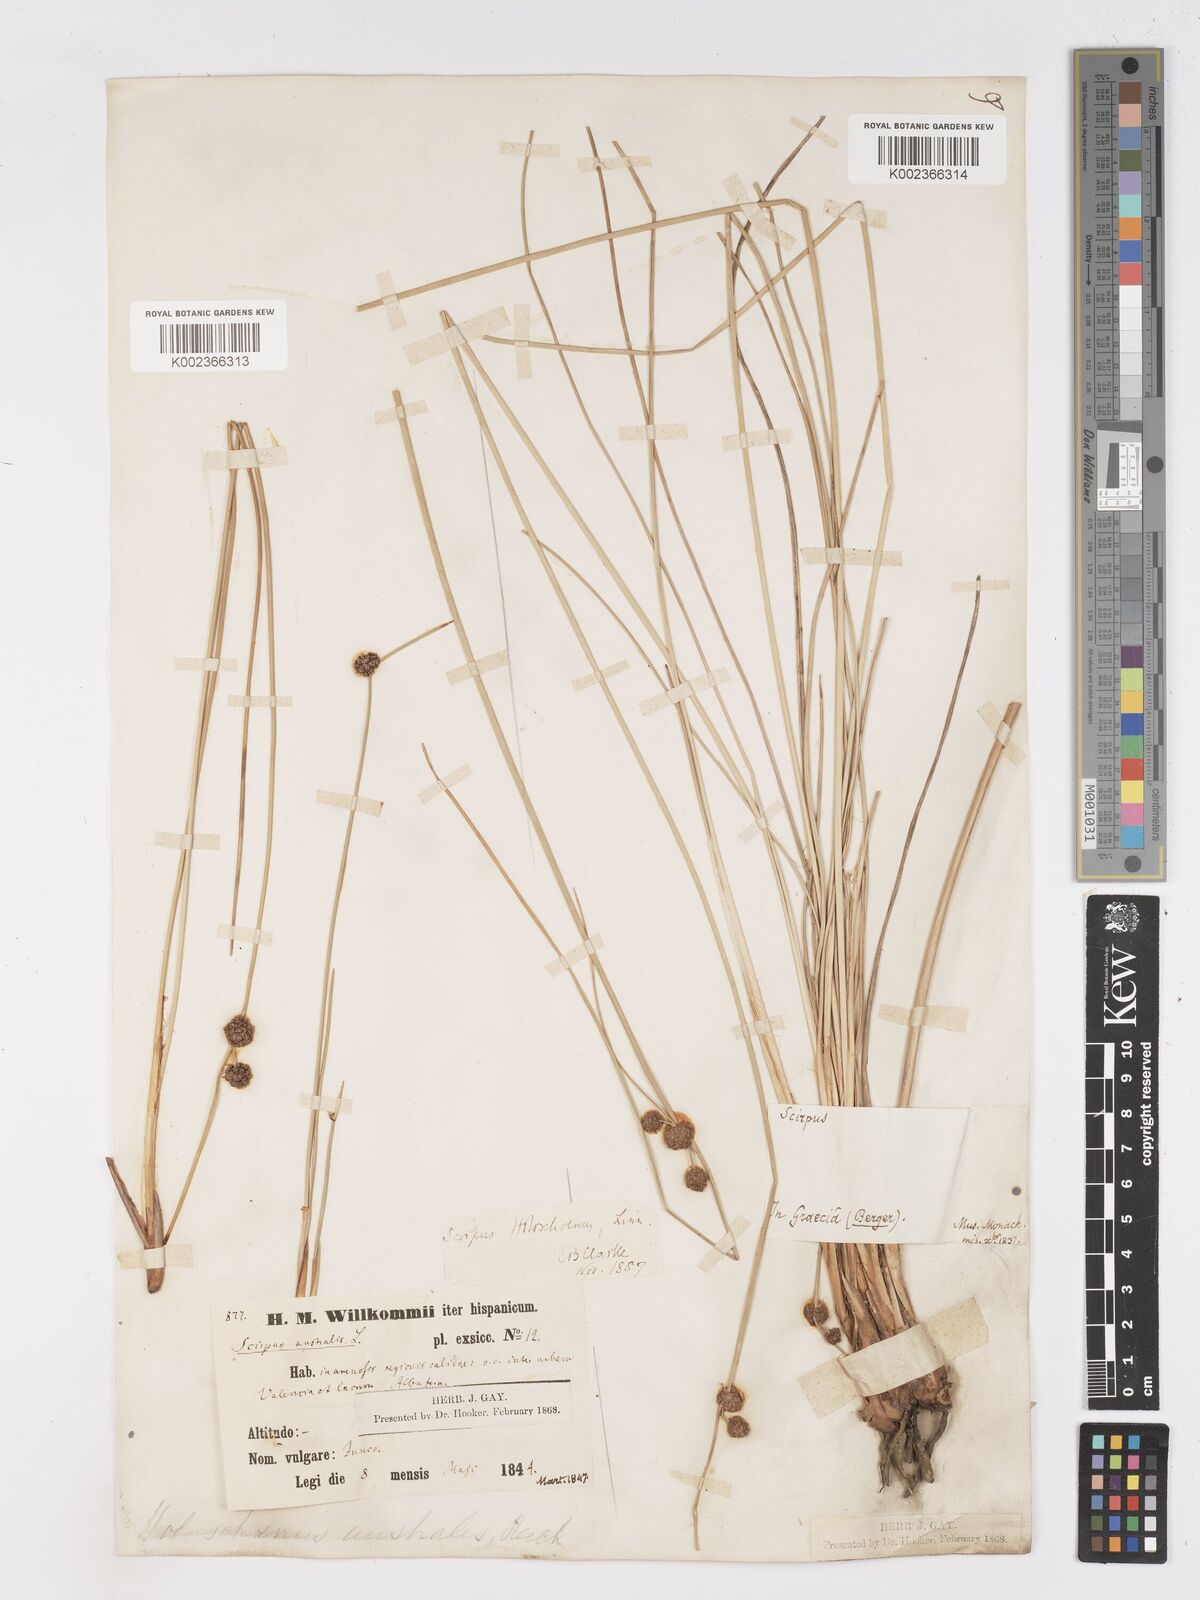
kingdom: Plantae
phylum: Tracheophyta
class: Liliopsida
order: Poales
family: Cyperaceae
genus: Scirpoides
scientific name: Scirpoides holoschoenus
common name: Round-headed club-rush
